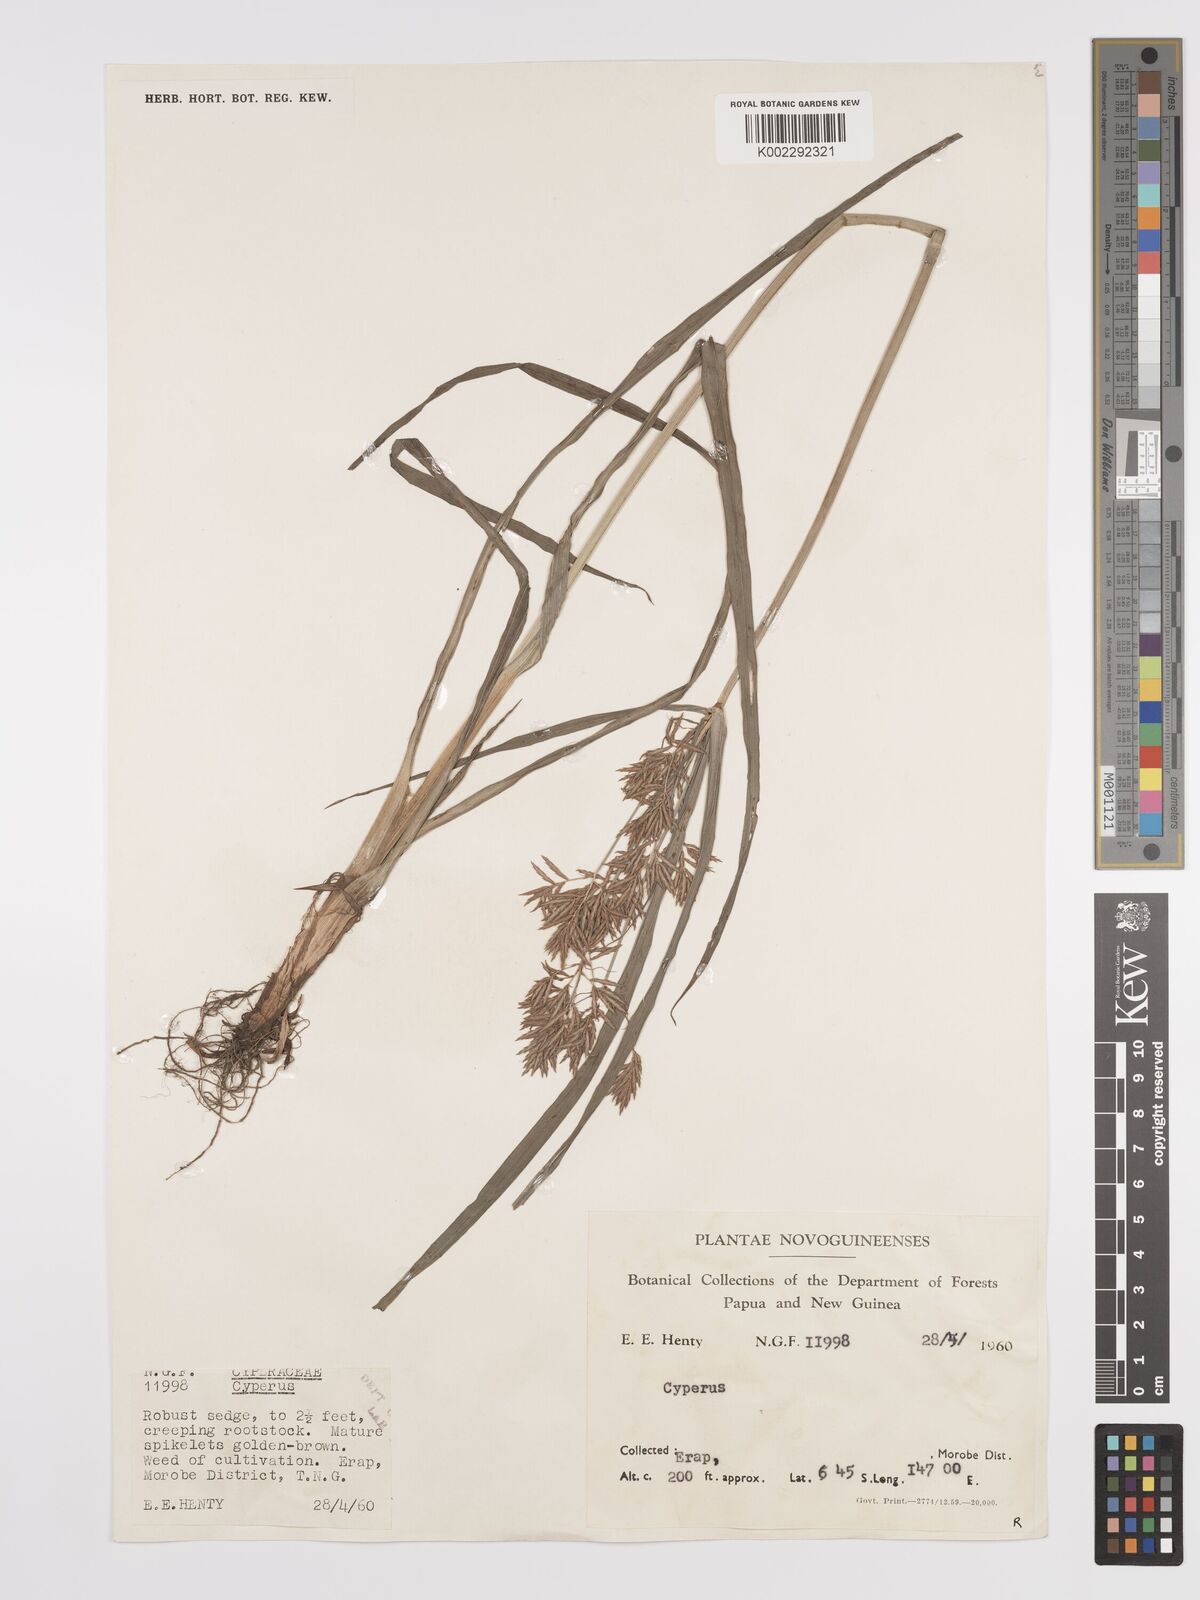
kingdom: Plantae
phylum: Tracheophyta
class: Liliopsida
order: Poales
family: Cyperaceae
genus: Cyperus
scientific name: Cyperus rotundus
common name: Nutgrass
